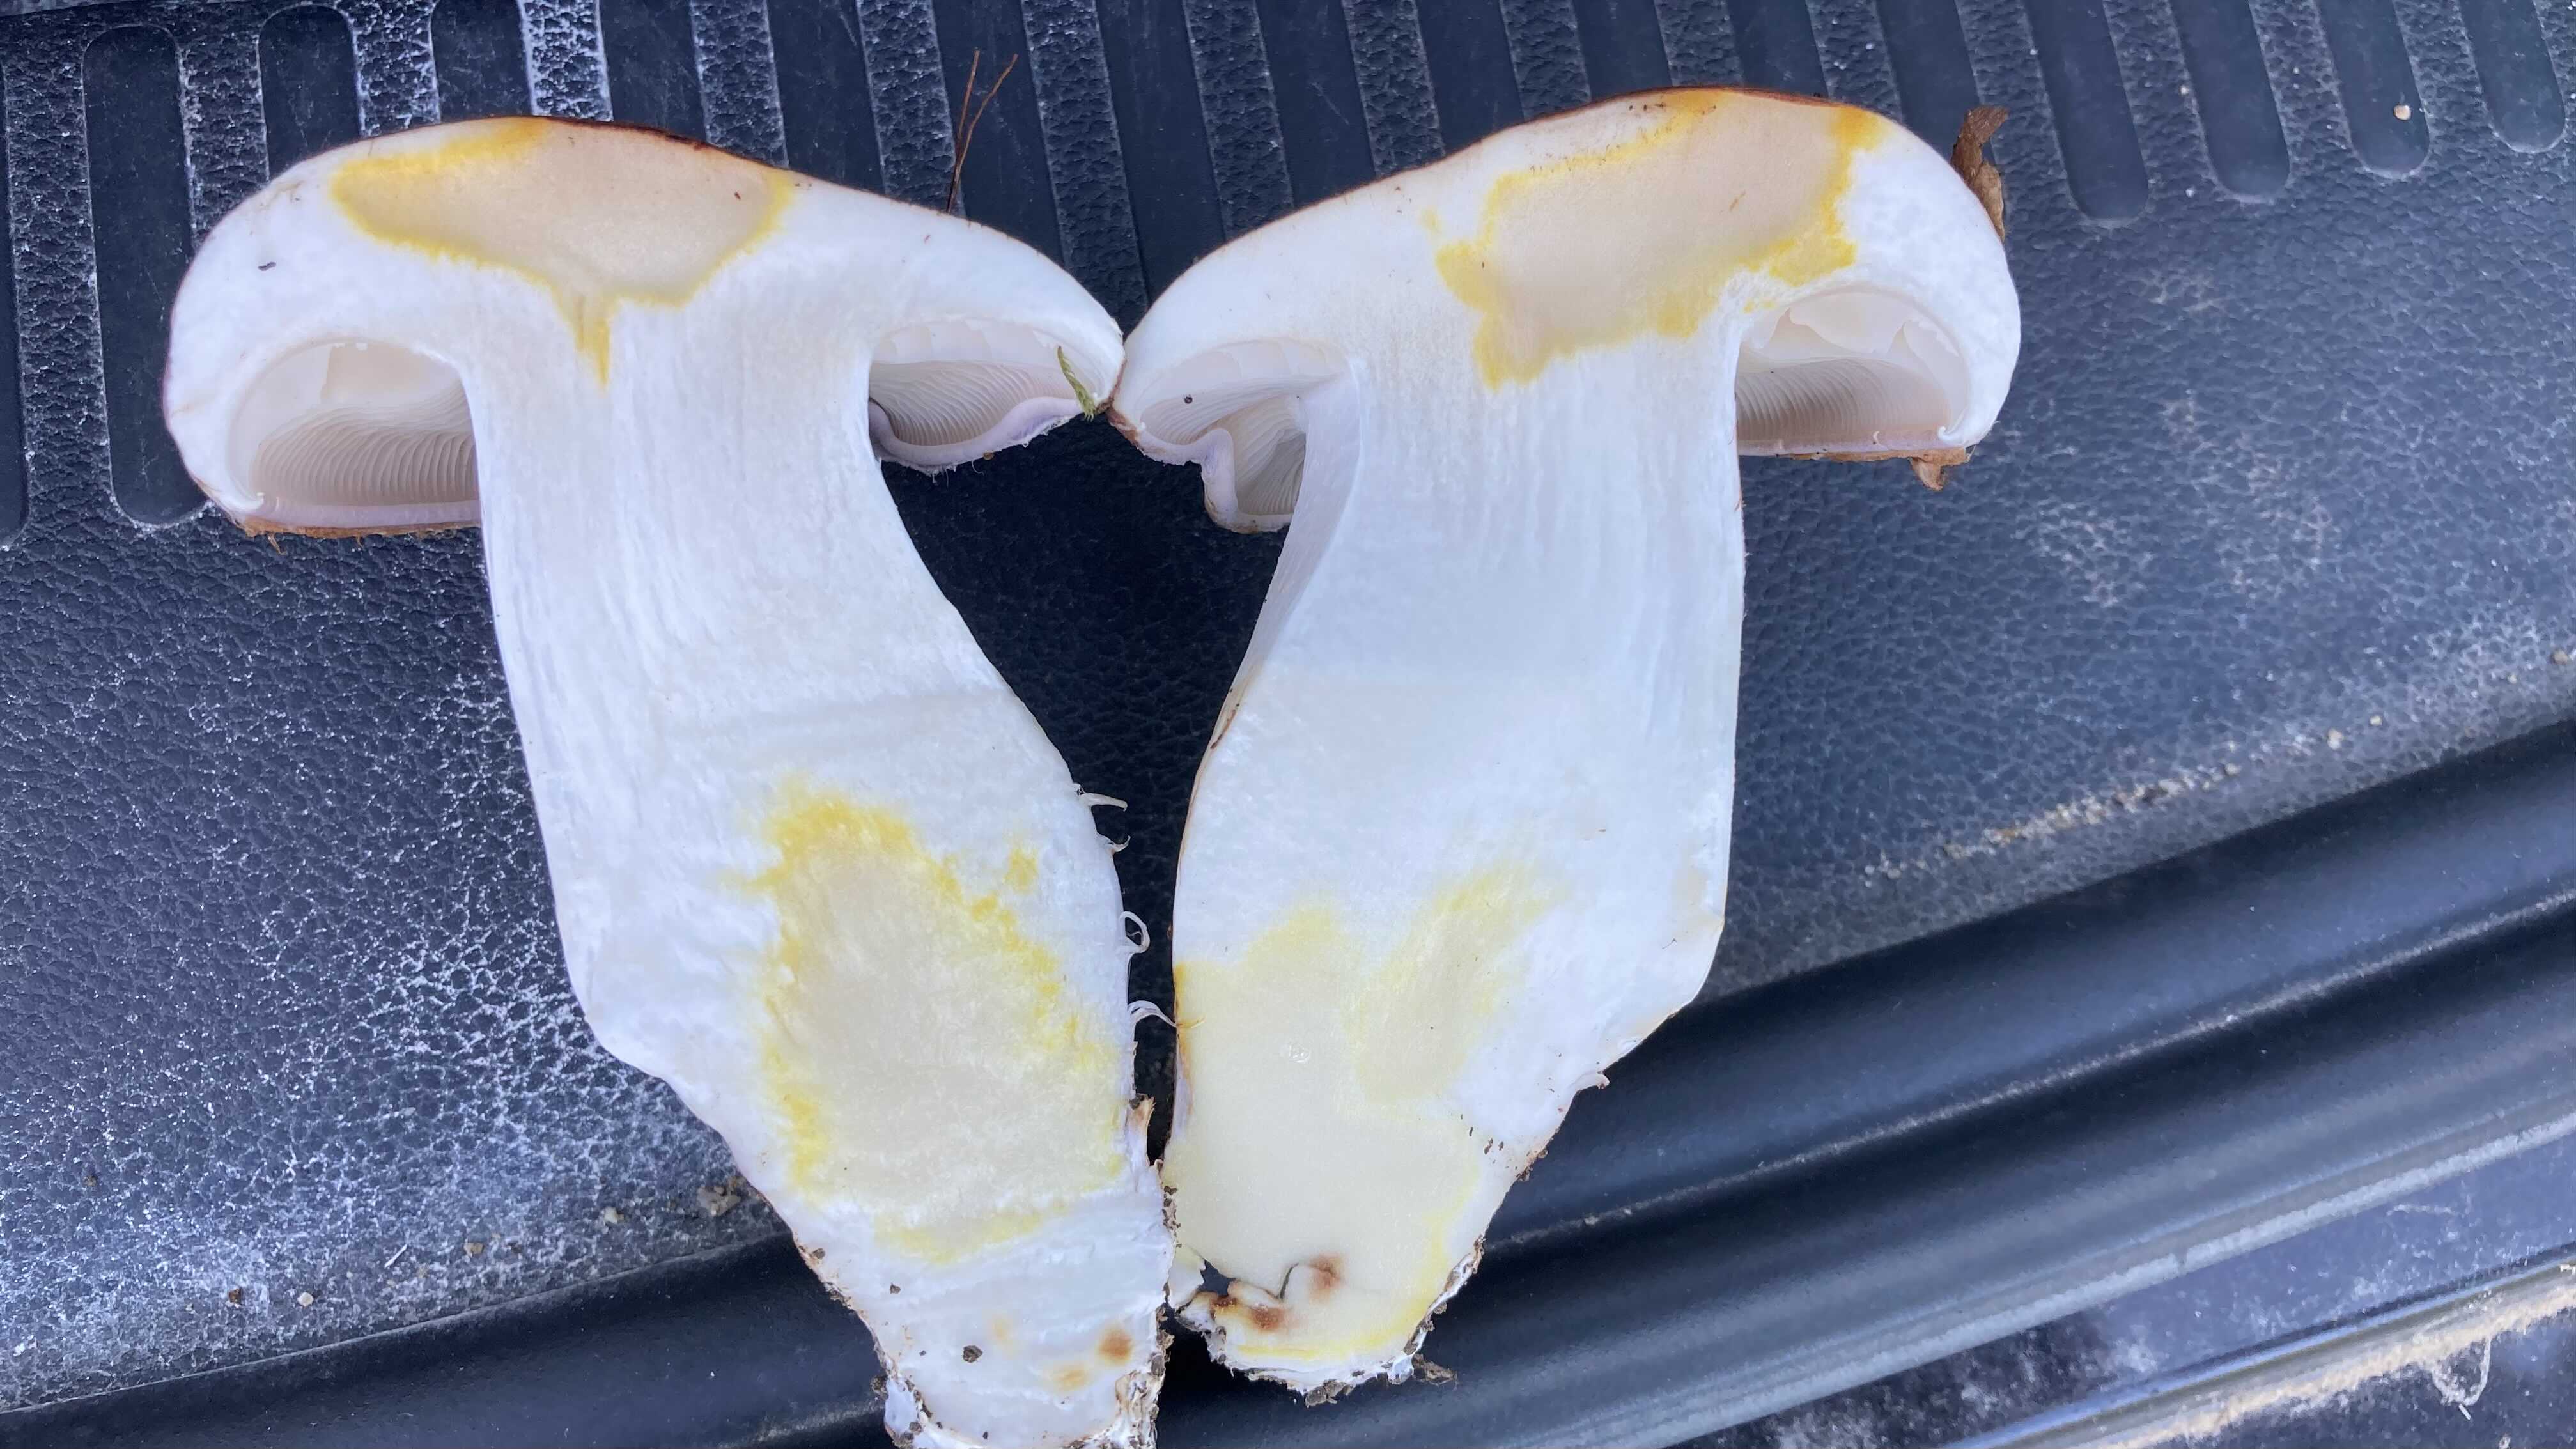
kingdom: Fungi
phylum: Basidiomycota
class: Agaricomycetes
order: Agaricales
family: Cortinariaceae
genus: Phlegmacium
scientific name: Phlegmacium balteatocumatile
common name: violettrådet slørhat
